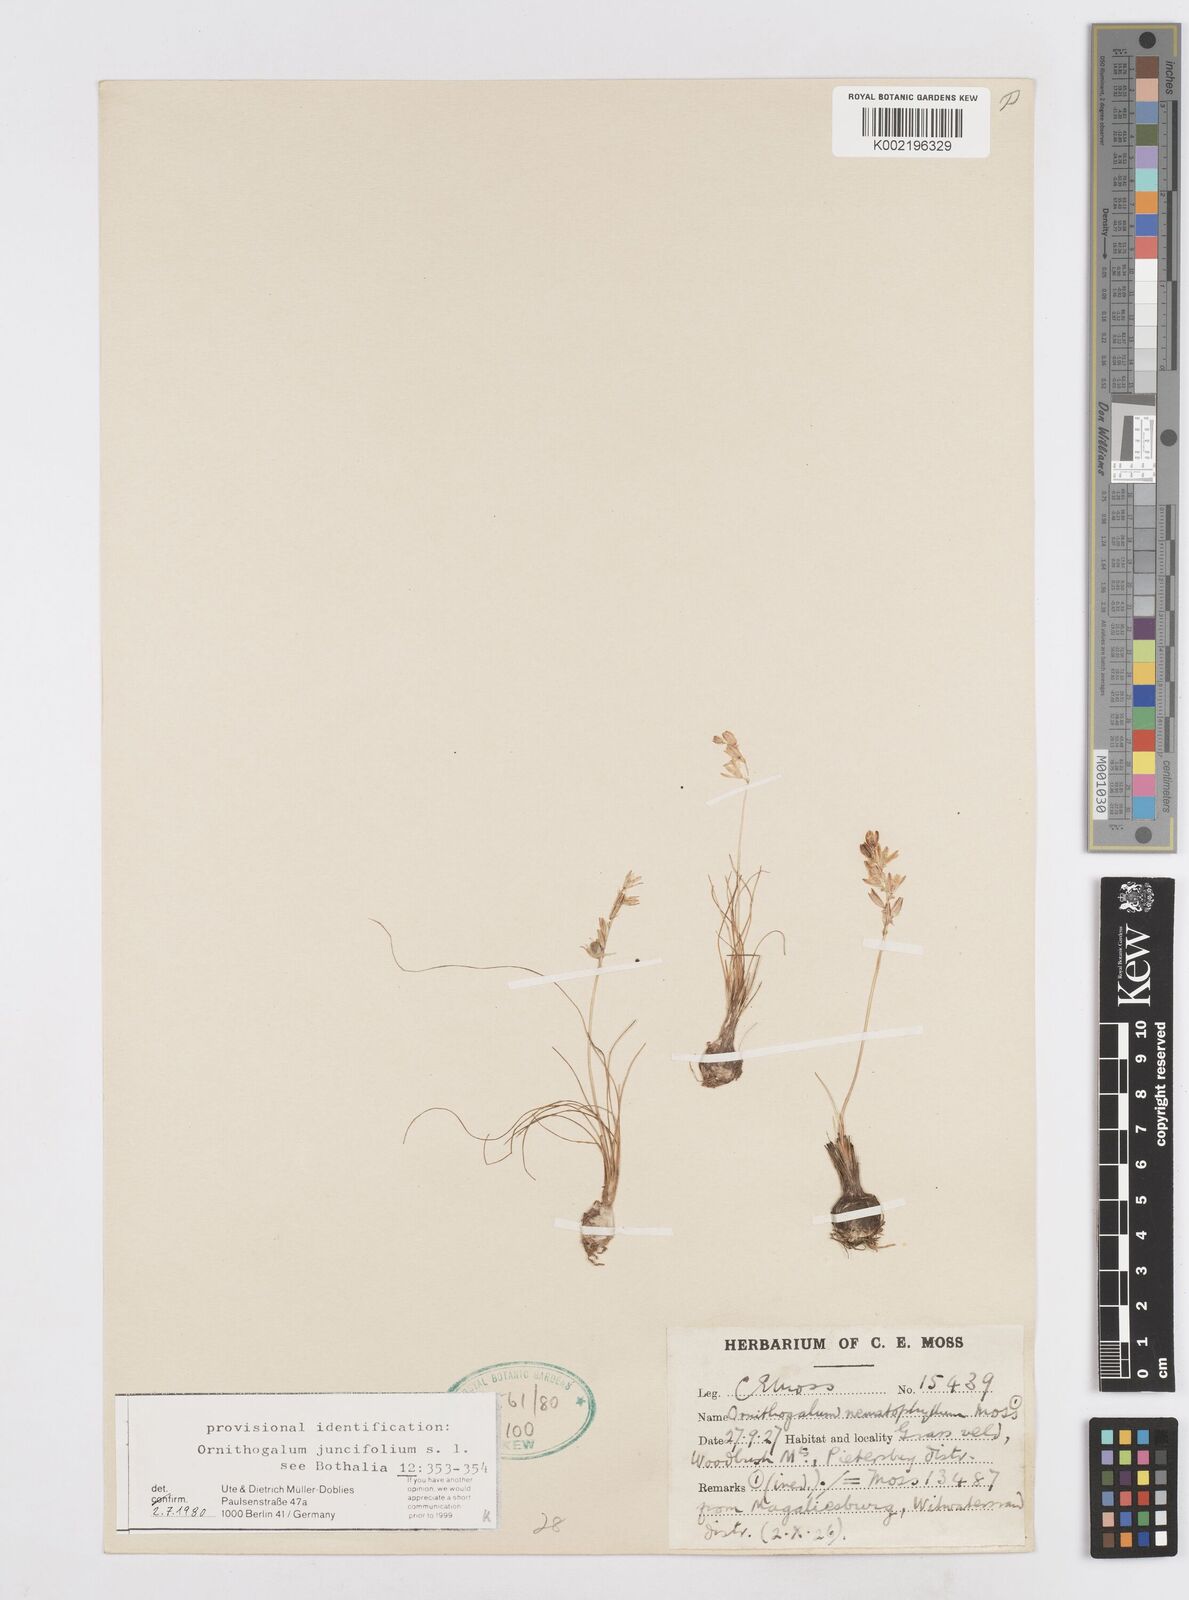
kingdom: Plantae
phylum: Tracheophyta
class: Liliopsida
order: Asparagales
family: Asparagaceae
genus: Ornithogalum
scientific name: Ornithogalum juncifolium
